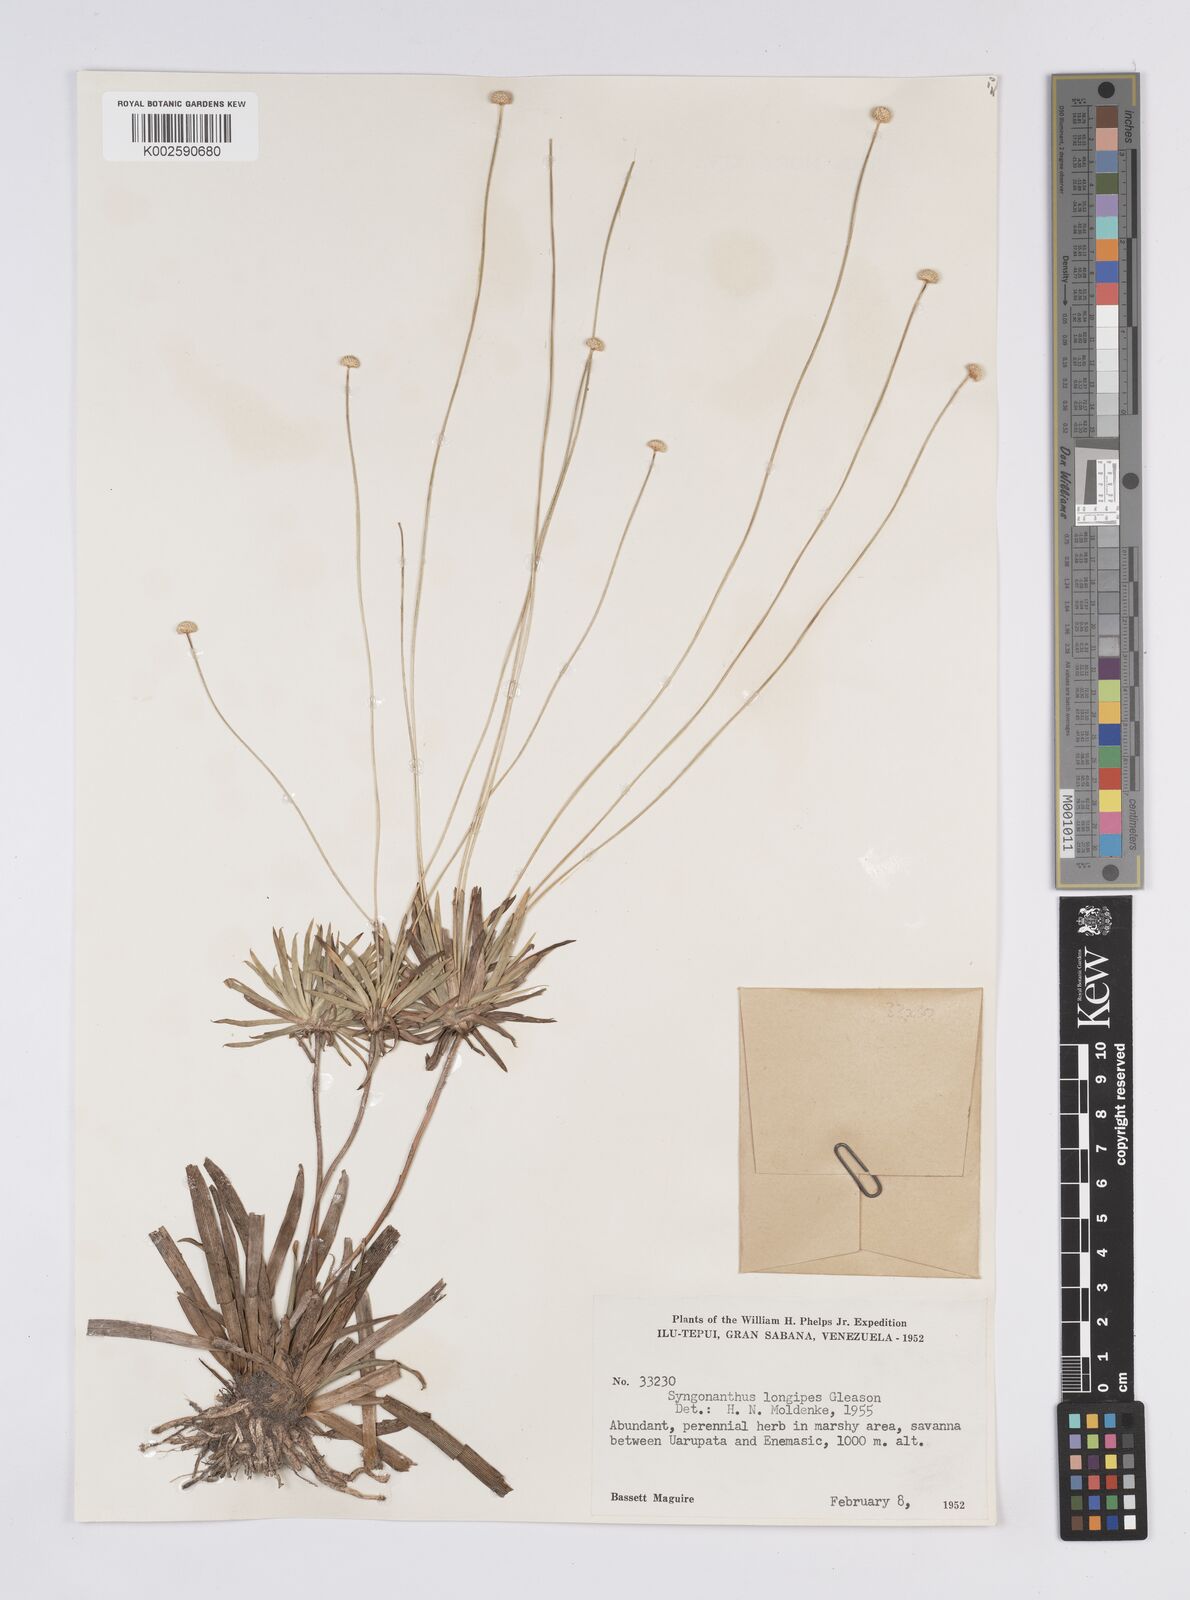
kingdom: Plantae
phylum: Tracheophyta
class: Liliopsida
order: Poales
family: Eriocaulaceae
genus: Syngonanthus
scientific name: Syngonanthus longipes
